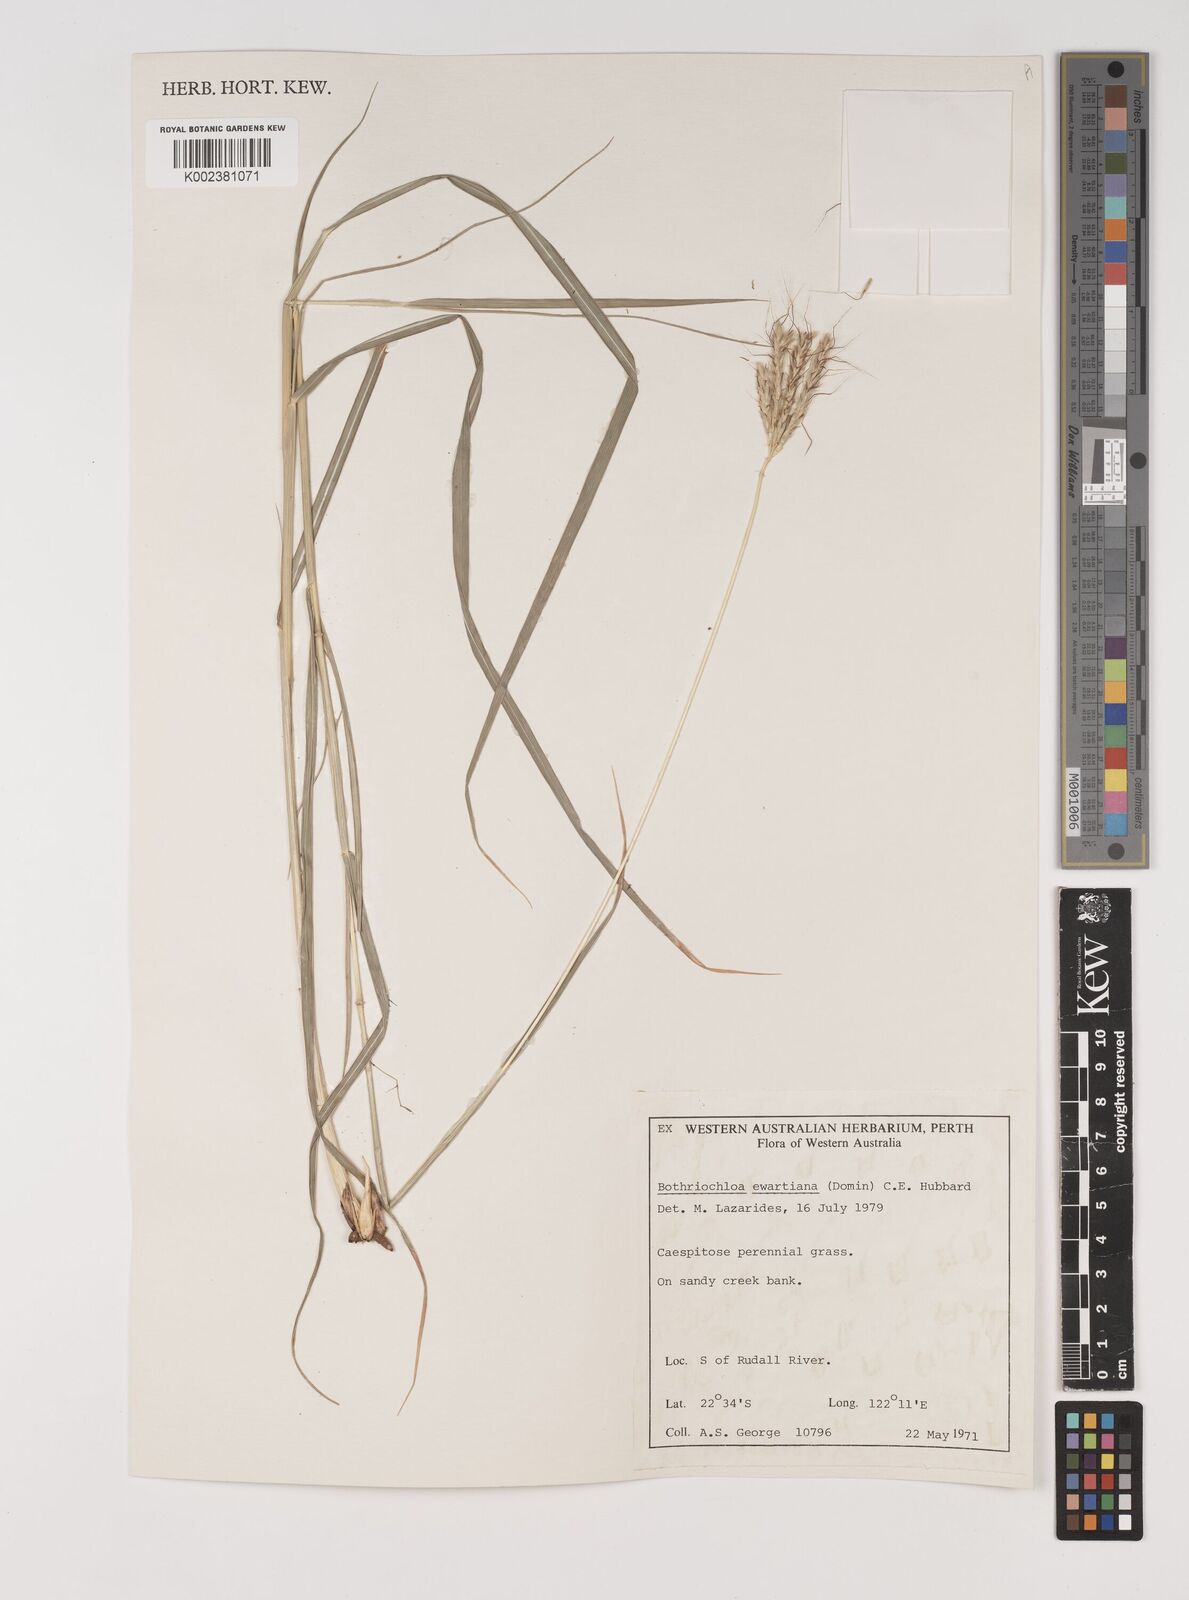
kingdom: Plantae
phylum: Tracheophyta
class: Liliopsida
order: Poales
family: Poaceae
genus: Bothriochloa
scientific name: Bothriochloa ewartiana
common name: Desert-bluegrass
